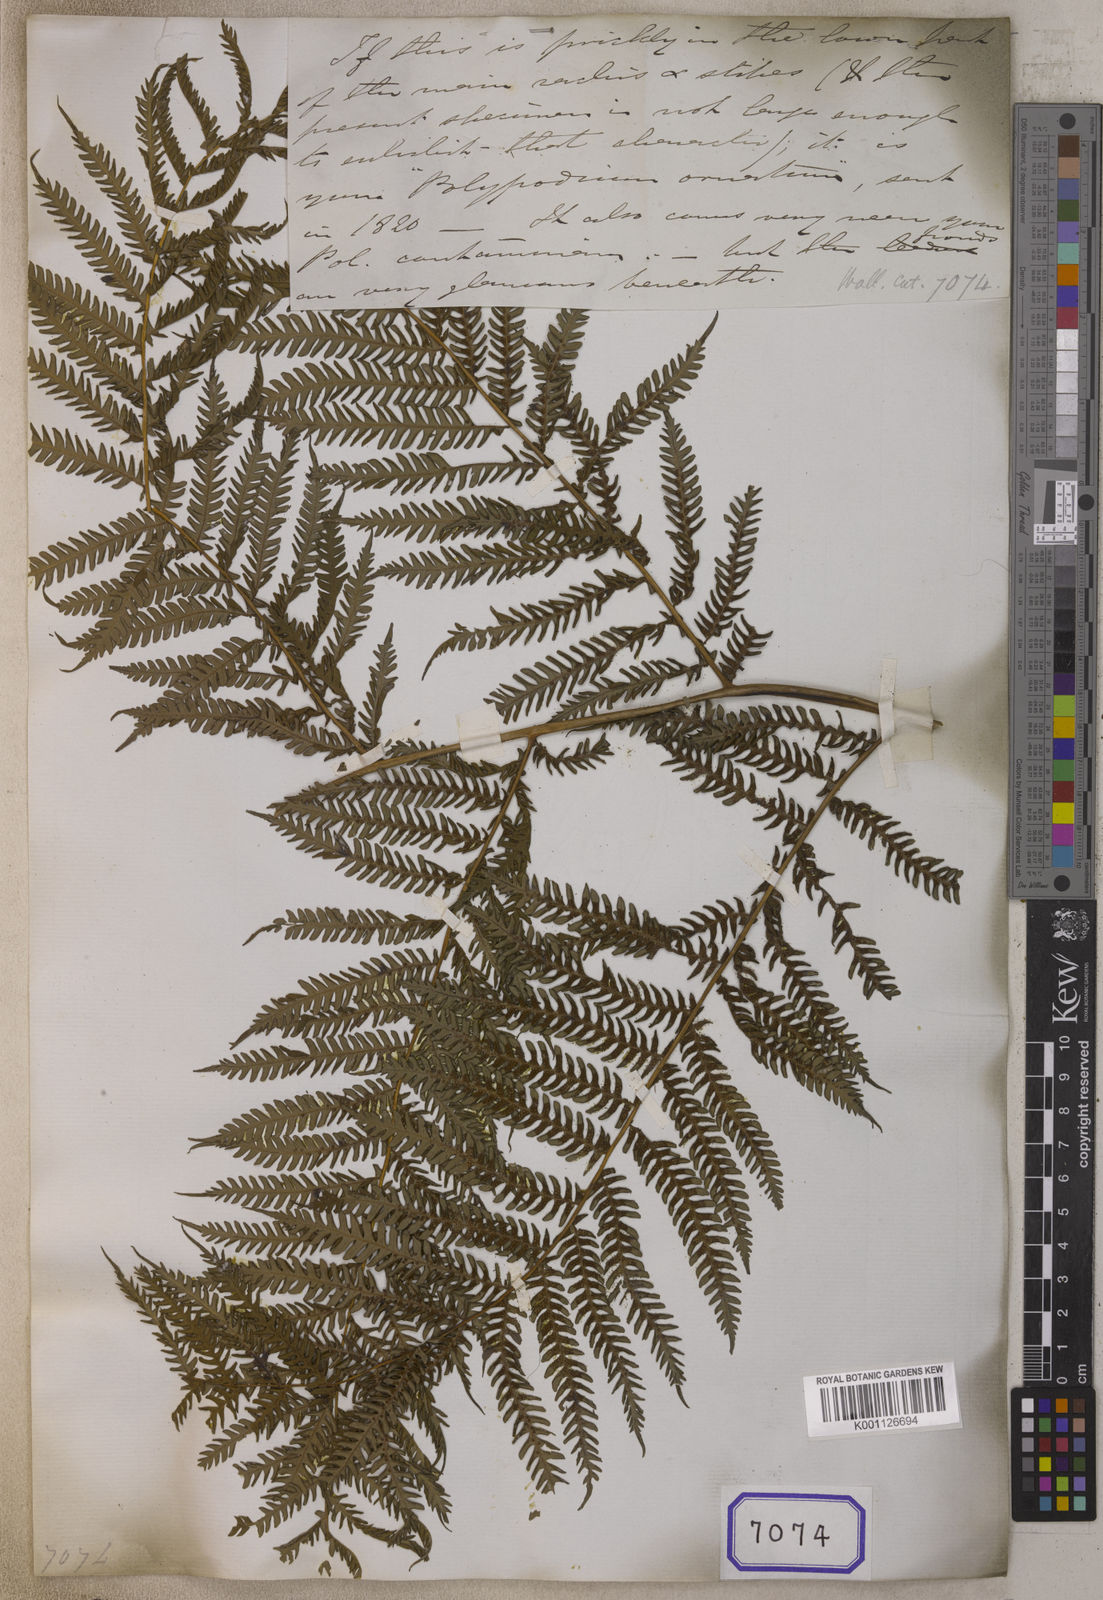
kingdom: Plantae
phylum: Tracheophyta
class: Polypodiopsida
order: Cyatheales
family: Cyatheaceae
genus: Sphaeropteris
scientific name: Sphaeropteris glauca
